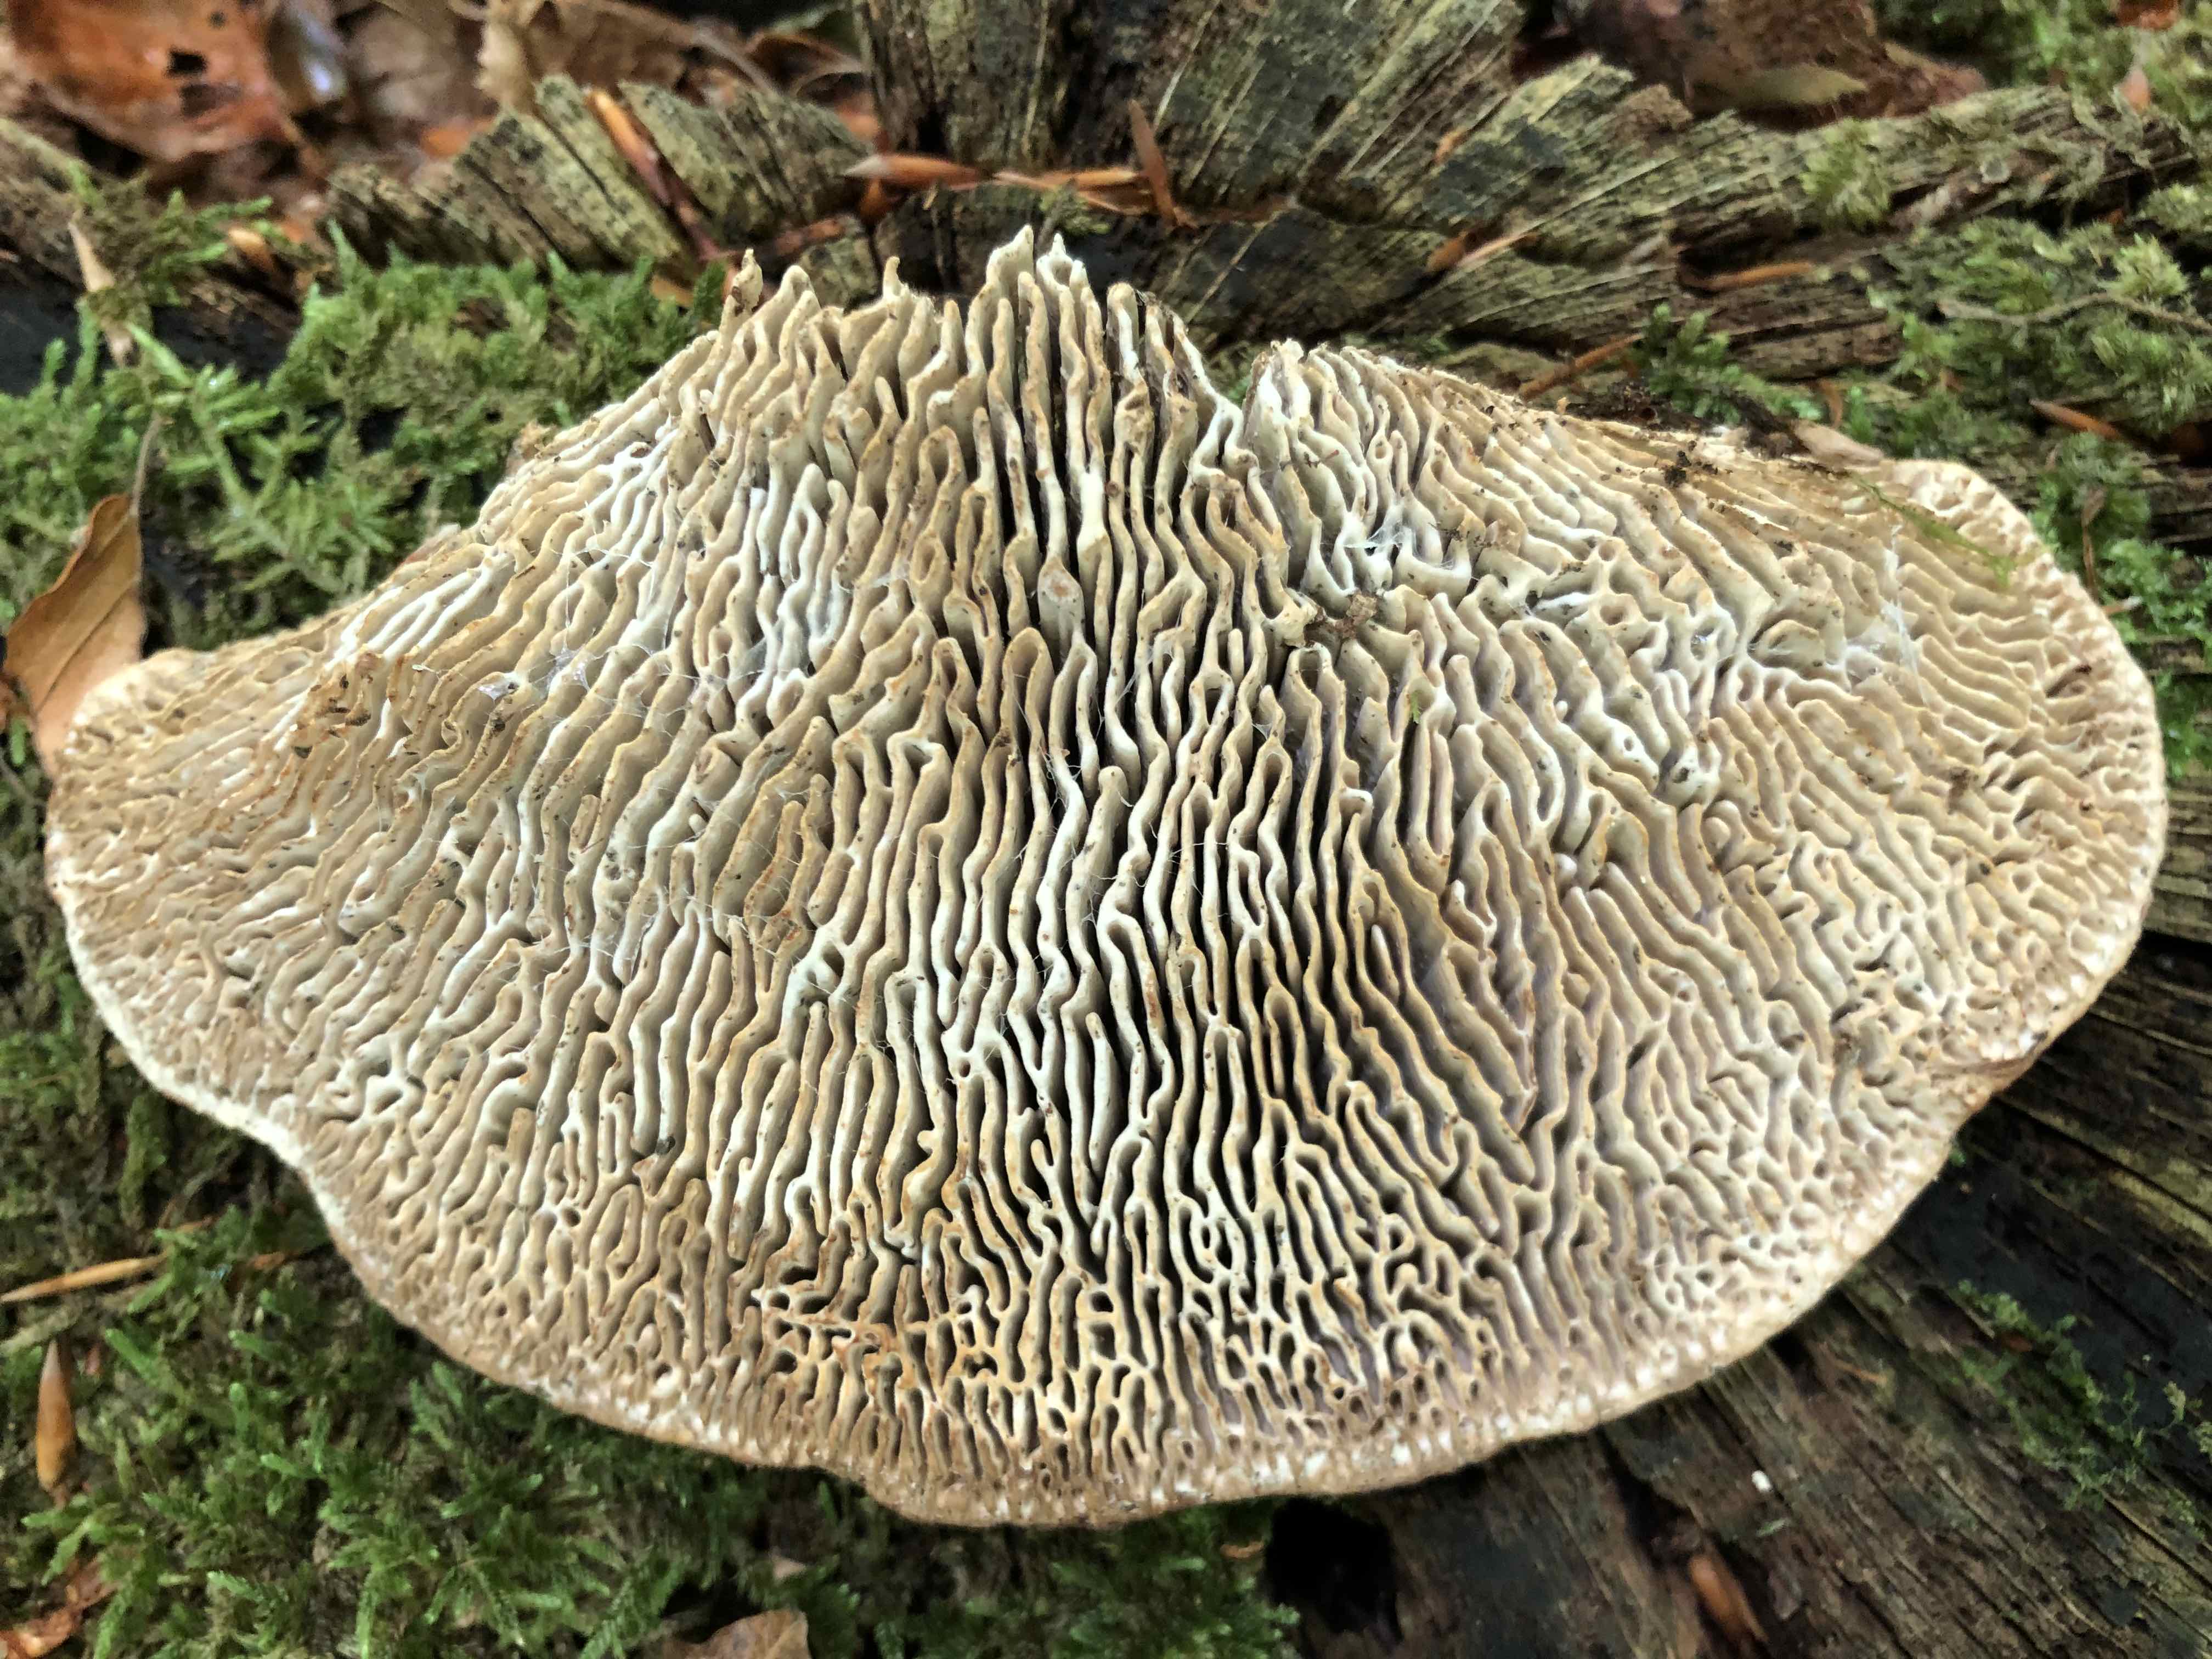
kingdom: Fungi
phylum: Basidiomycota
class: Agaricomycetes
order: Polyporales
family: Fomitopsidaceae
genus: Daedalea
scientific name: Daedalea quercina
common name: ege-labyrintsvamp
